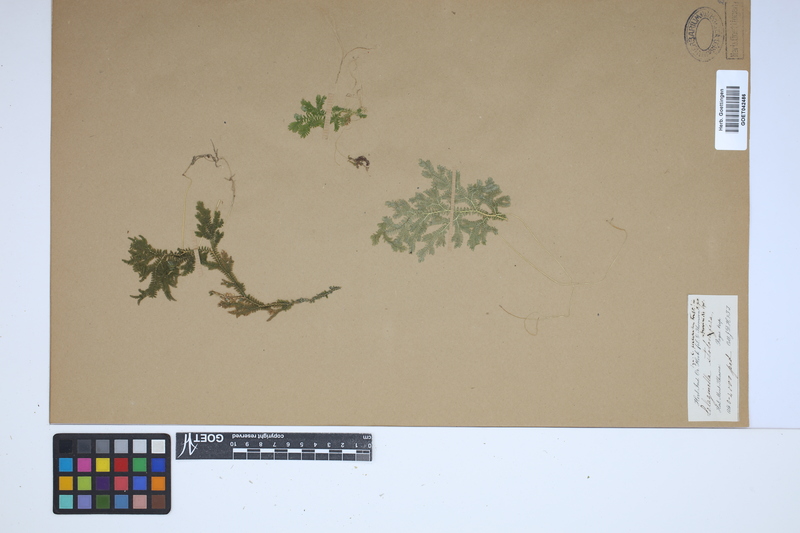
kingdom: Plantae
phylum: Tracheophyta
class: Lycopodiopsida
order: Selaginellales
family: Selaginellaceae
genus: Selaginella
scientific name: Selaginella intermedia
